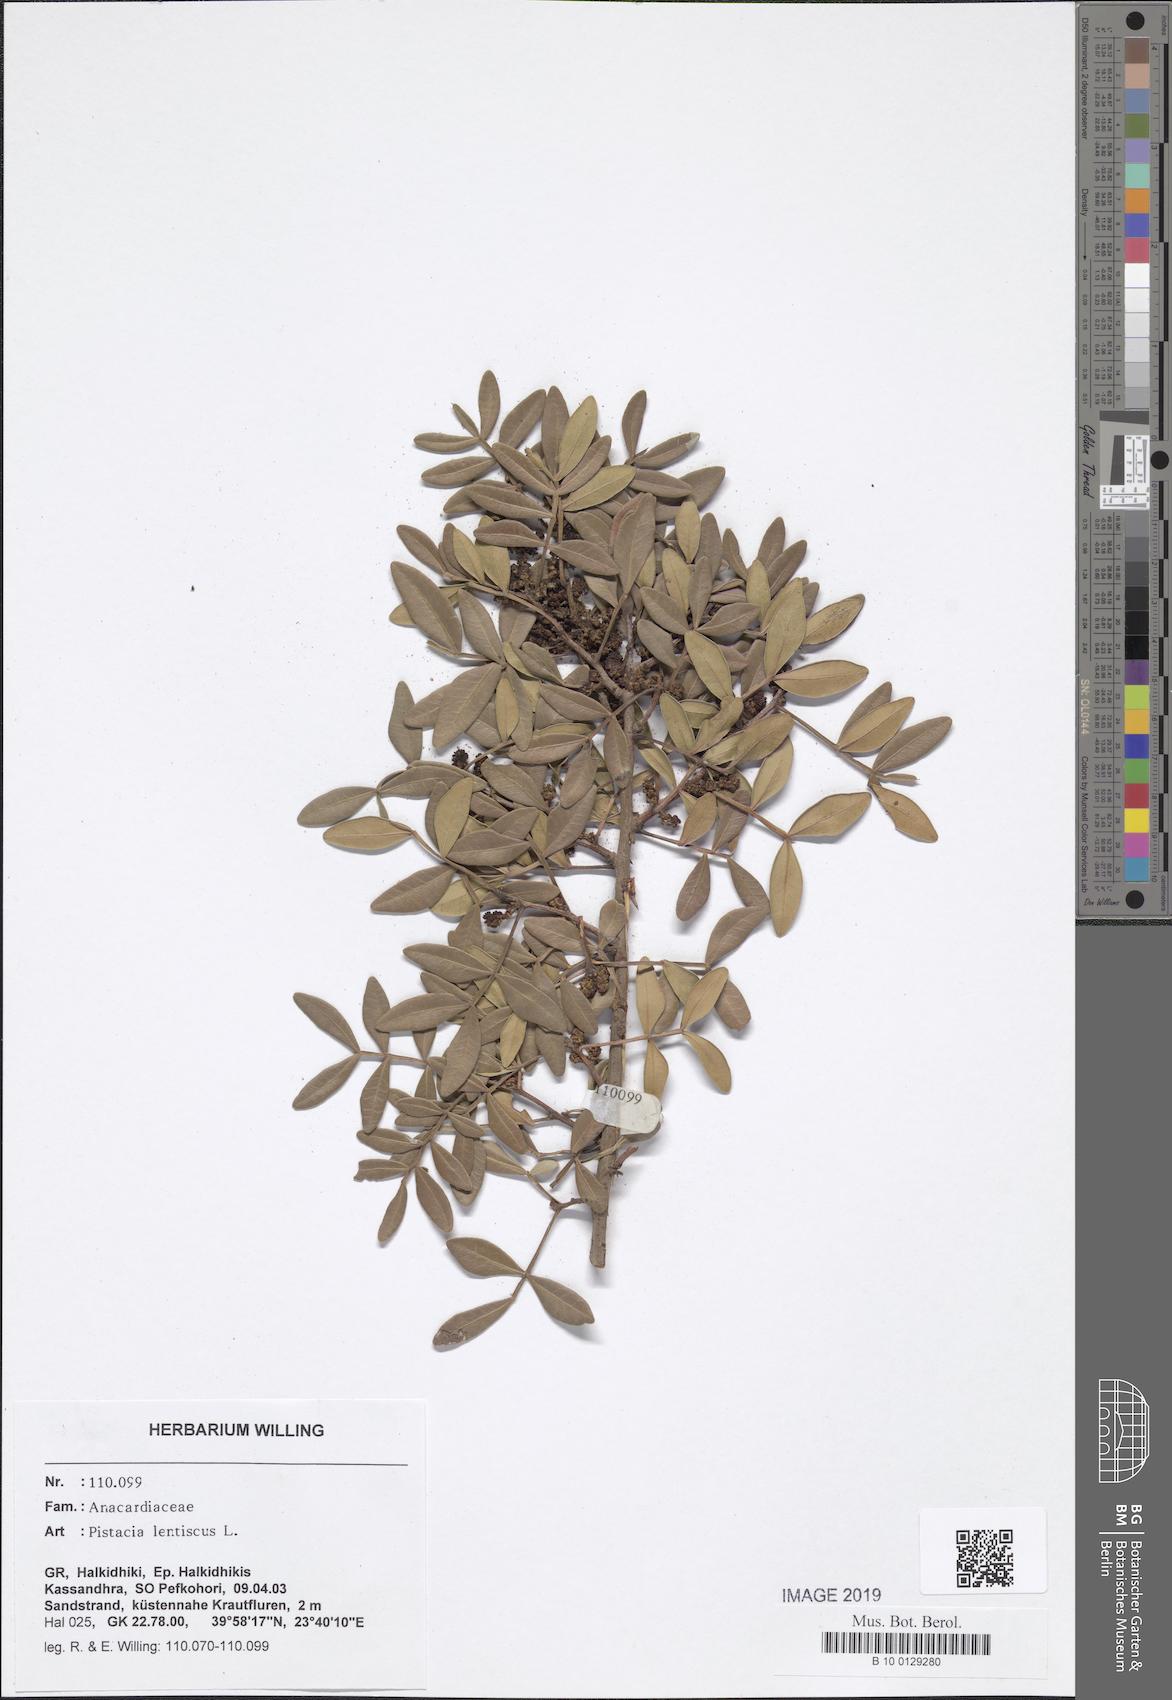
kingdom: Plantae
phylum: Tracheophyta
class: Magnoliopsida
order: Sapindales
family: Anacardiaceae
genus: Pistacia
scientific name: Pistacia lentiscus
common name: Lentisk
